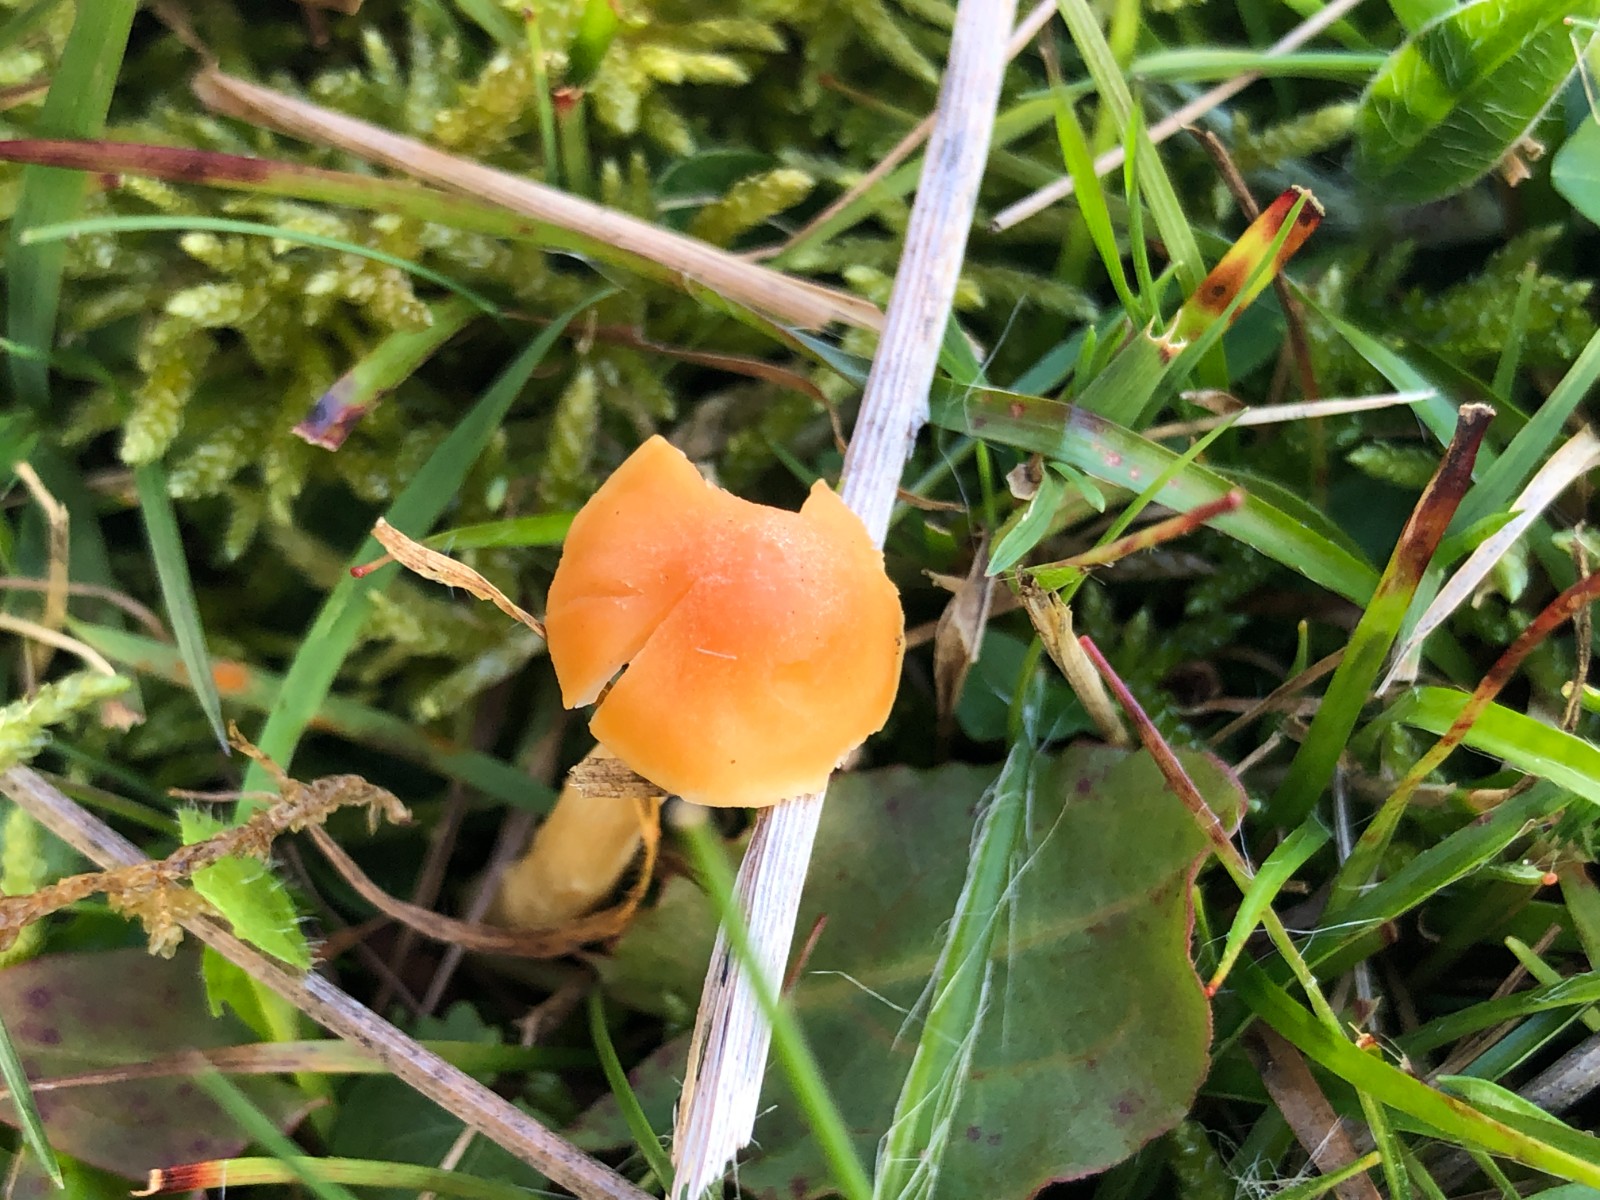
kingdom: Fungi
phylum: Basidiomycota
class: Agaricomycetes
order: Agaricales
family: Hygrophoraceae
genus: Cuphophyllus
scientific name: Cuphophyllus pratensis
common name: eng-vokshat
